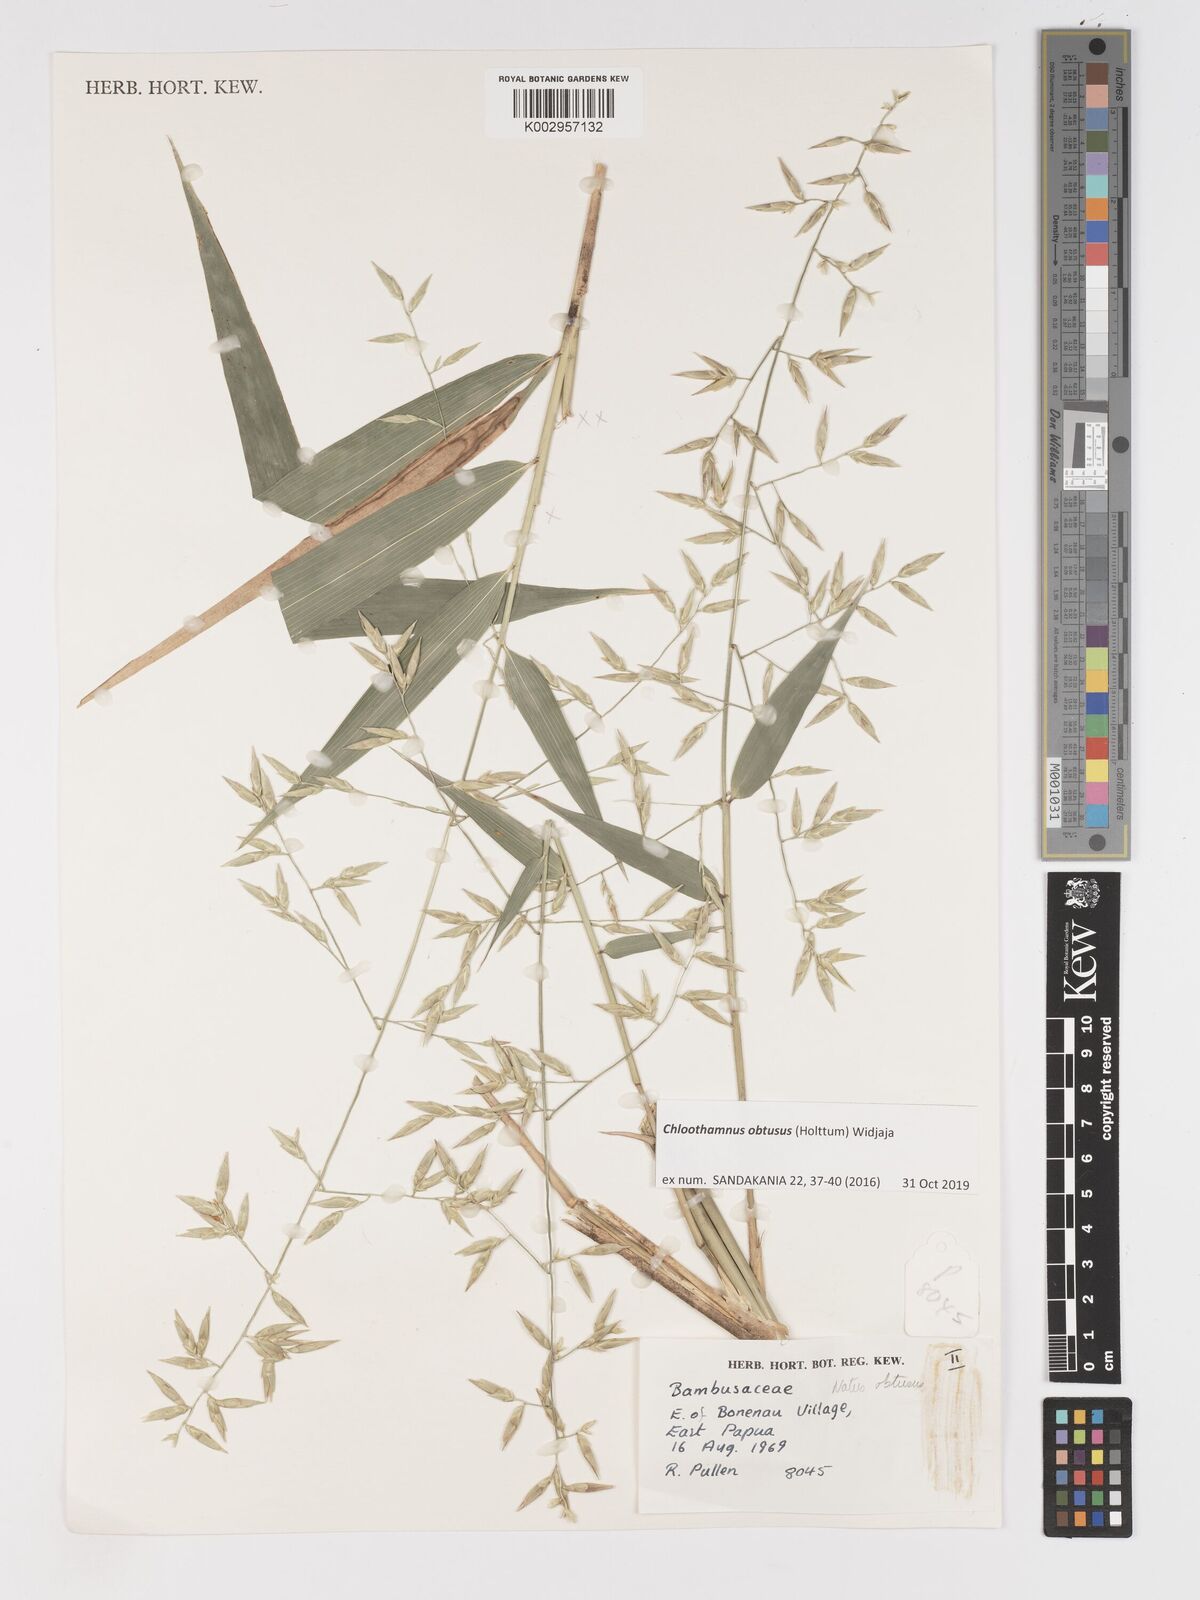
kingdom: Plantae
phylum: Tracheophyta
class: Liliopsida
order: Poales
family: Poaceae
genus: Chloothamnus
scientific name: Chloothamnus obtusus
